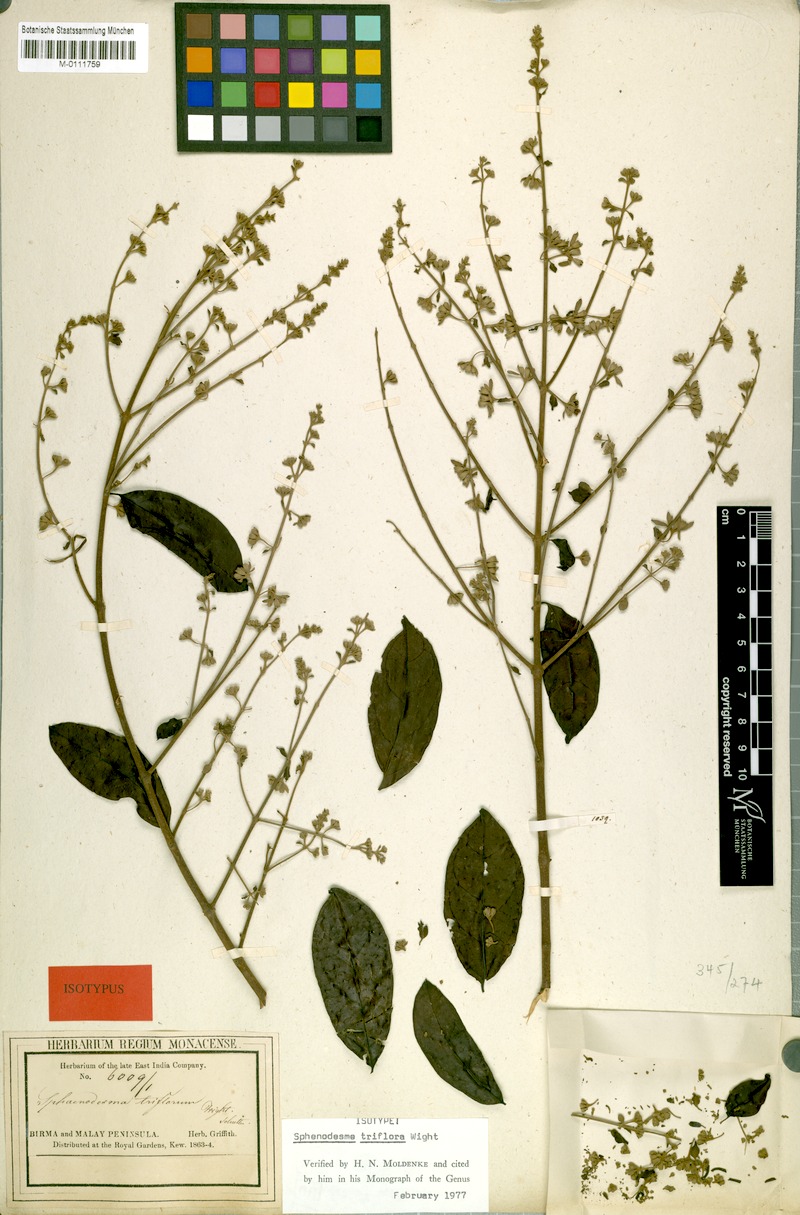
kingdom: Plantae
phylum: Tracheophyta
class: Magnoliopsida
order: Lamiales
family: Lamiaceae
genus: Sphenodesme
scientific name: Sphenodesme triflora
